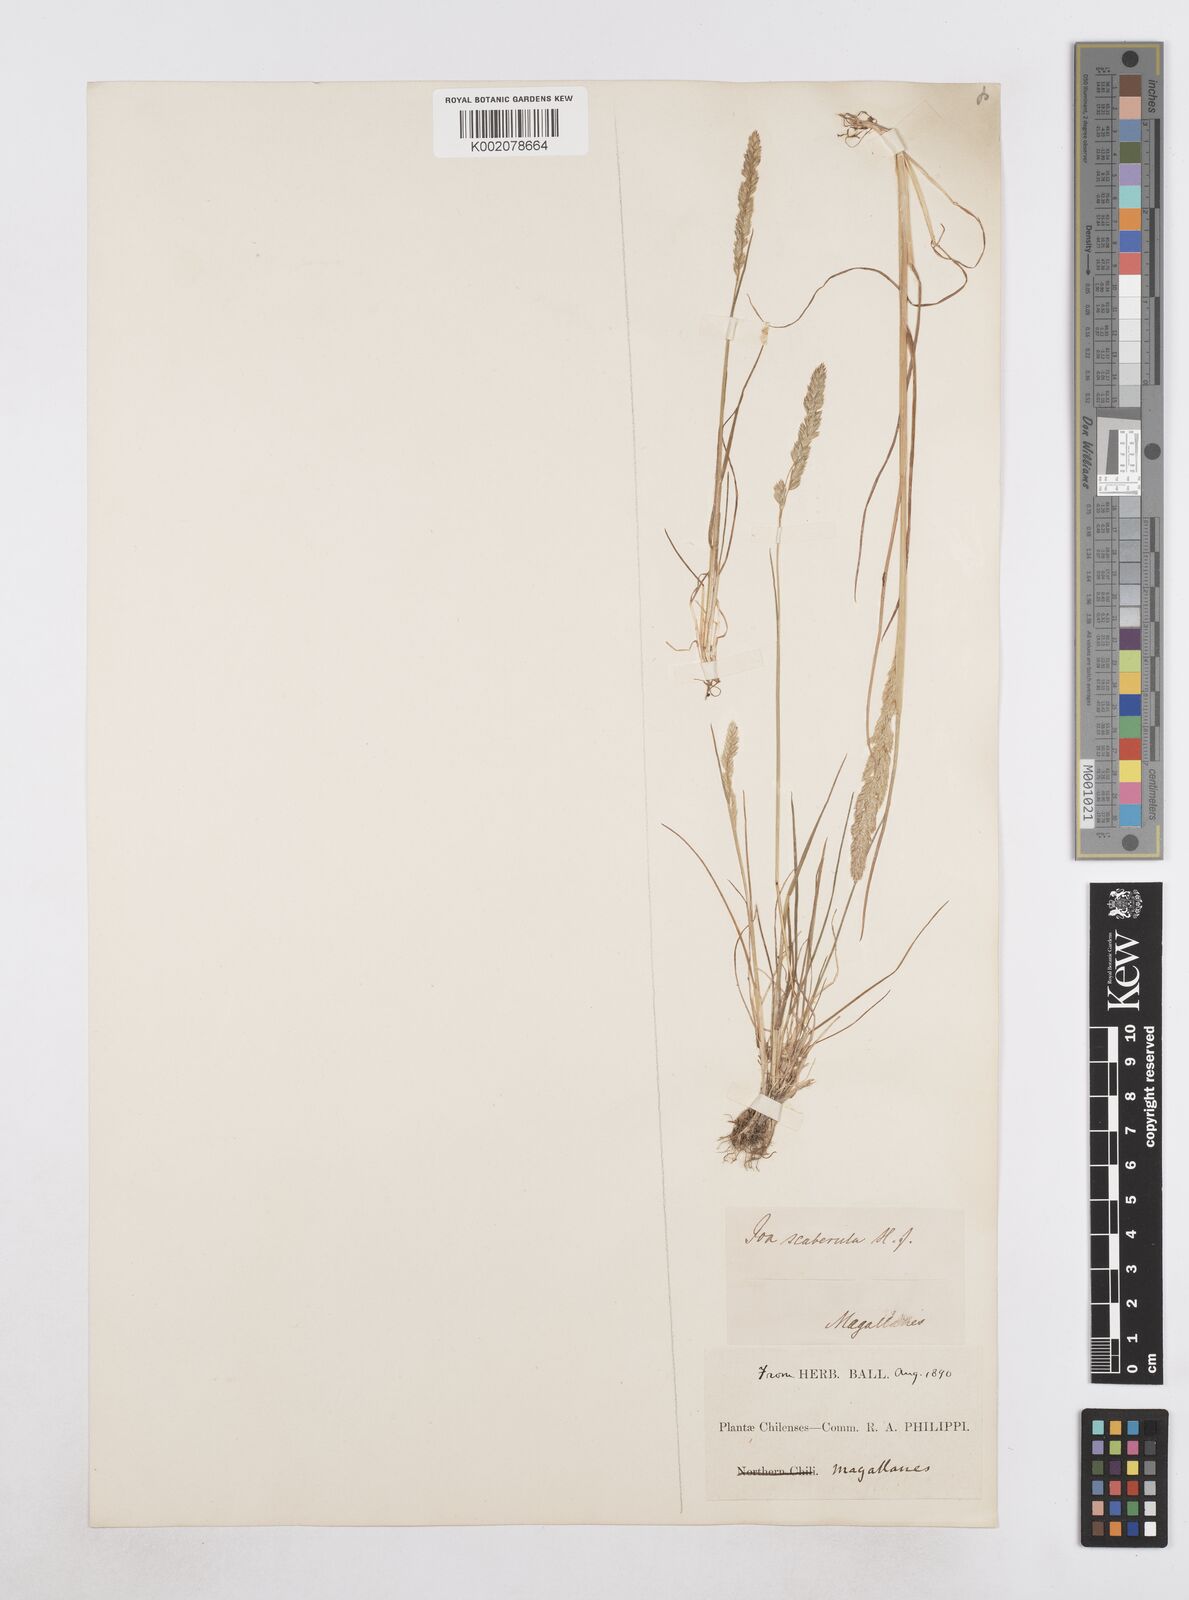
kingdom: Plantae
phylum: Tracheophyta
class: Liliopsida
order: Poales
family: Poaceae
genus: Poa
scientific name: Poa scaberula
